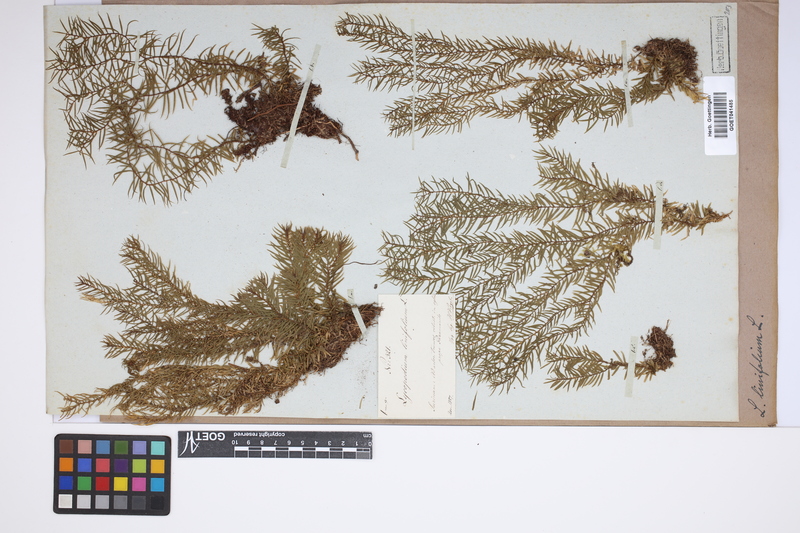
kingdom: Plantae
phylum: Tracheophyta
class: Lycopodiopsida
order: Lycopodiales
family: Lycopodiaceae
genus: Phlegmariurus
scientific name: Phlegmariurus linifolius
